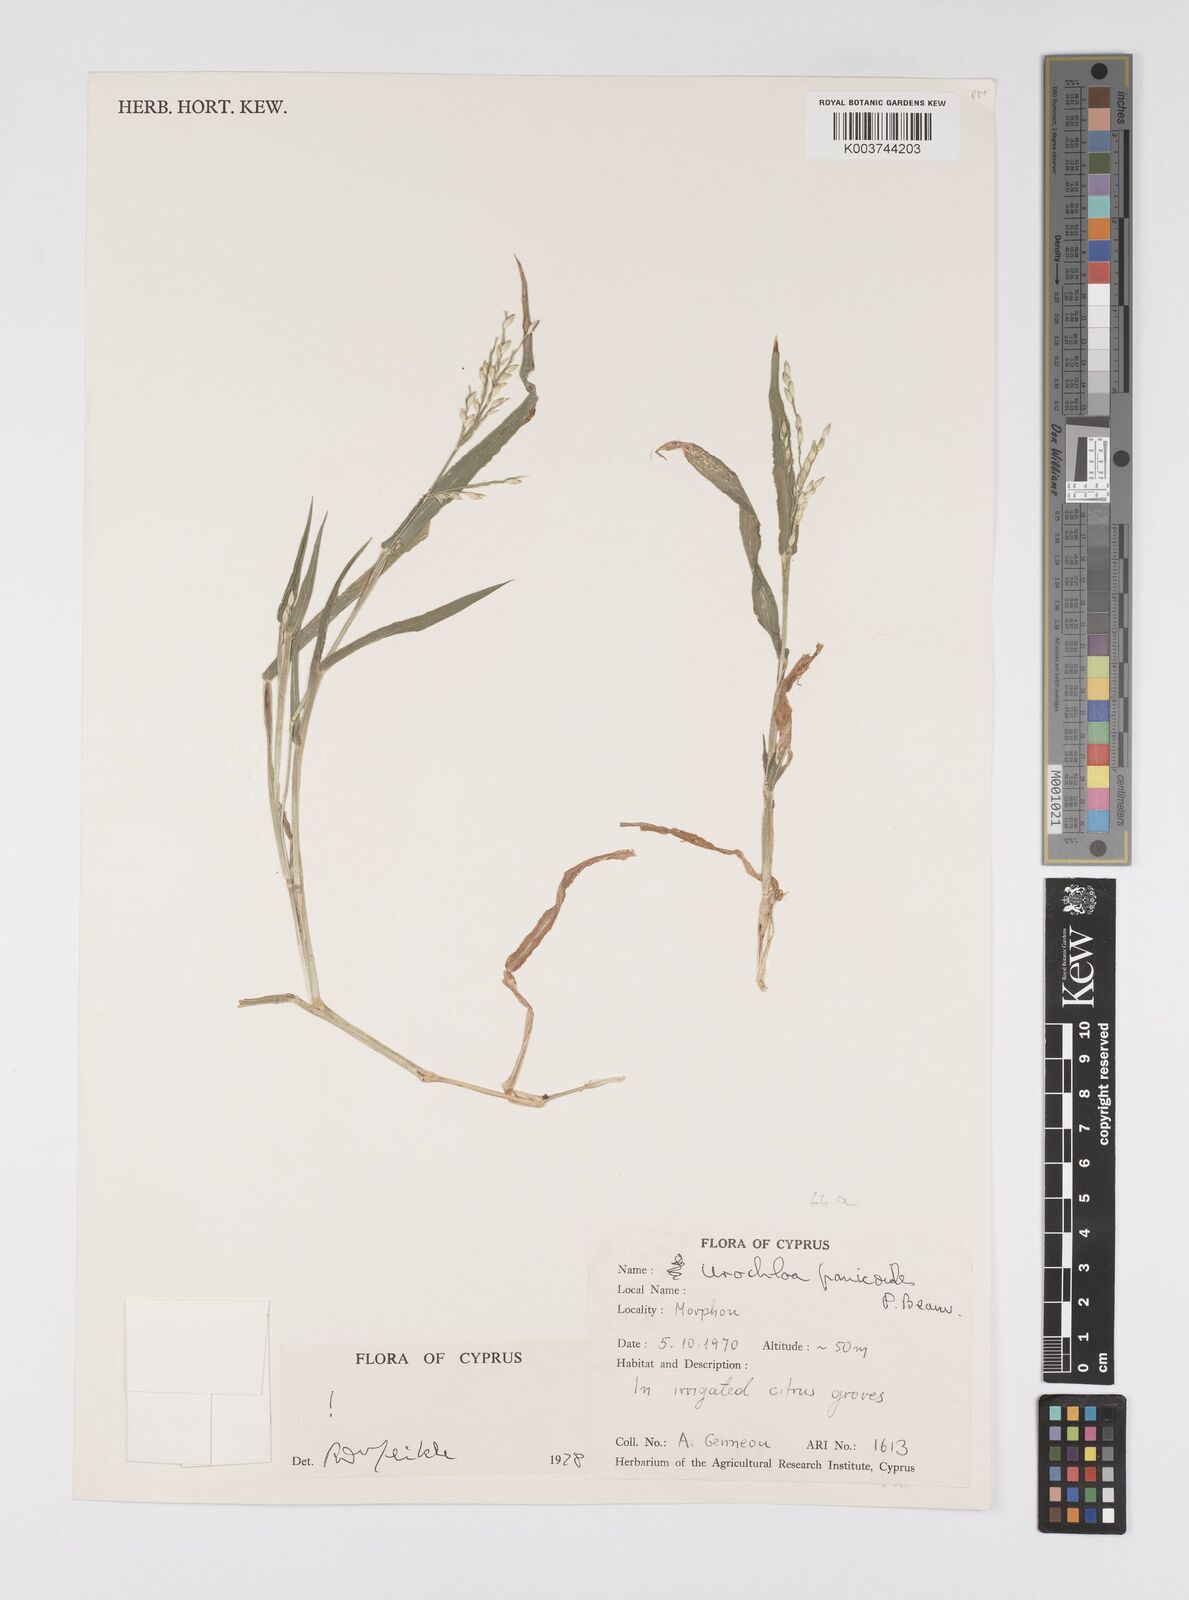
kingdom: Plantae
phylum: Tracheophyta
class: Liliopsida
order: Poales
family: Poaceae
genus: Urochloa
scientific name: Urochloa panicoides
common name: Sharp-flowered signal-grass
